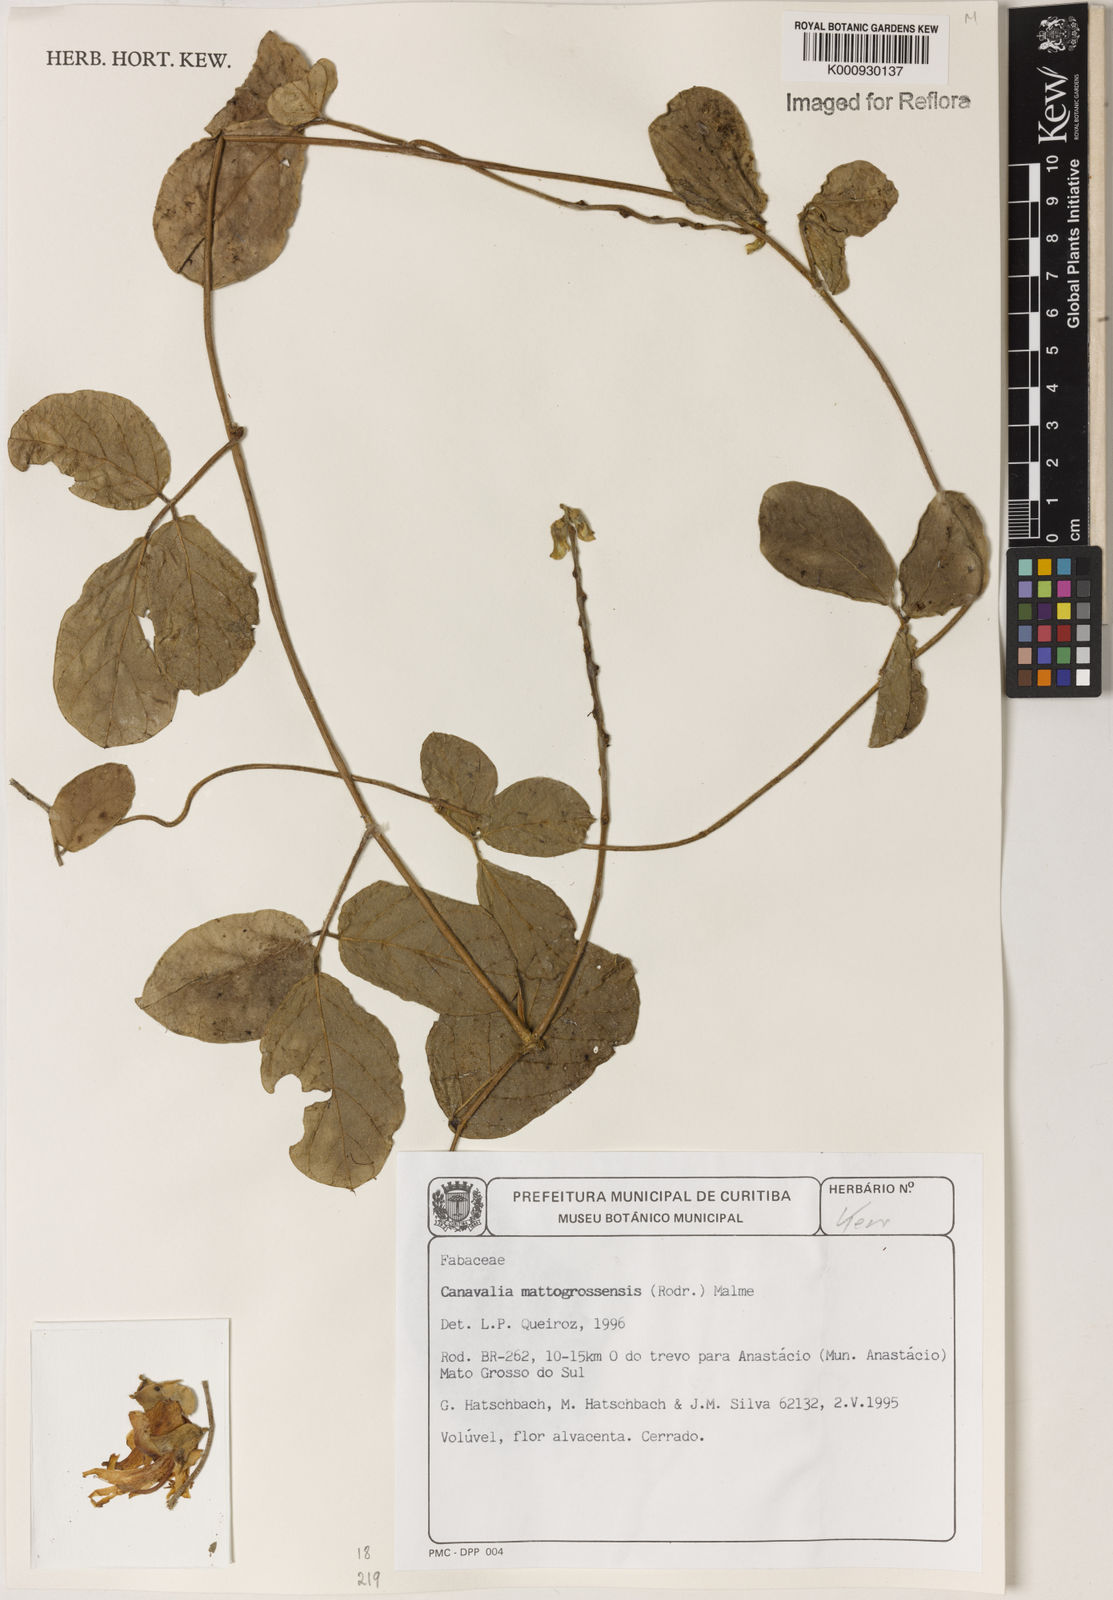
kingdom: Plantae
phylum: Tracheophyta
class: Magnoliopsida
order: Fabales
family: Fabaceae
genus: Canavalia
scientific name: Canavalia mattogrossensis
